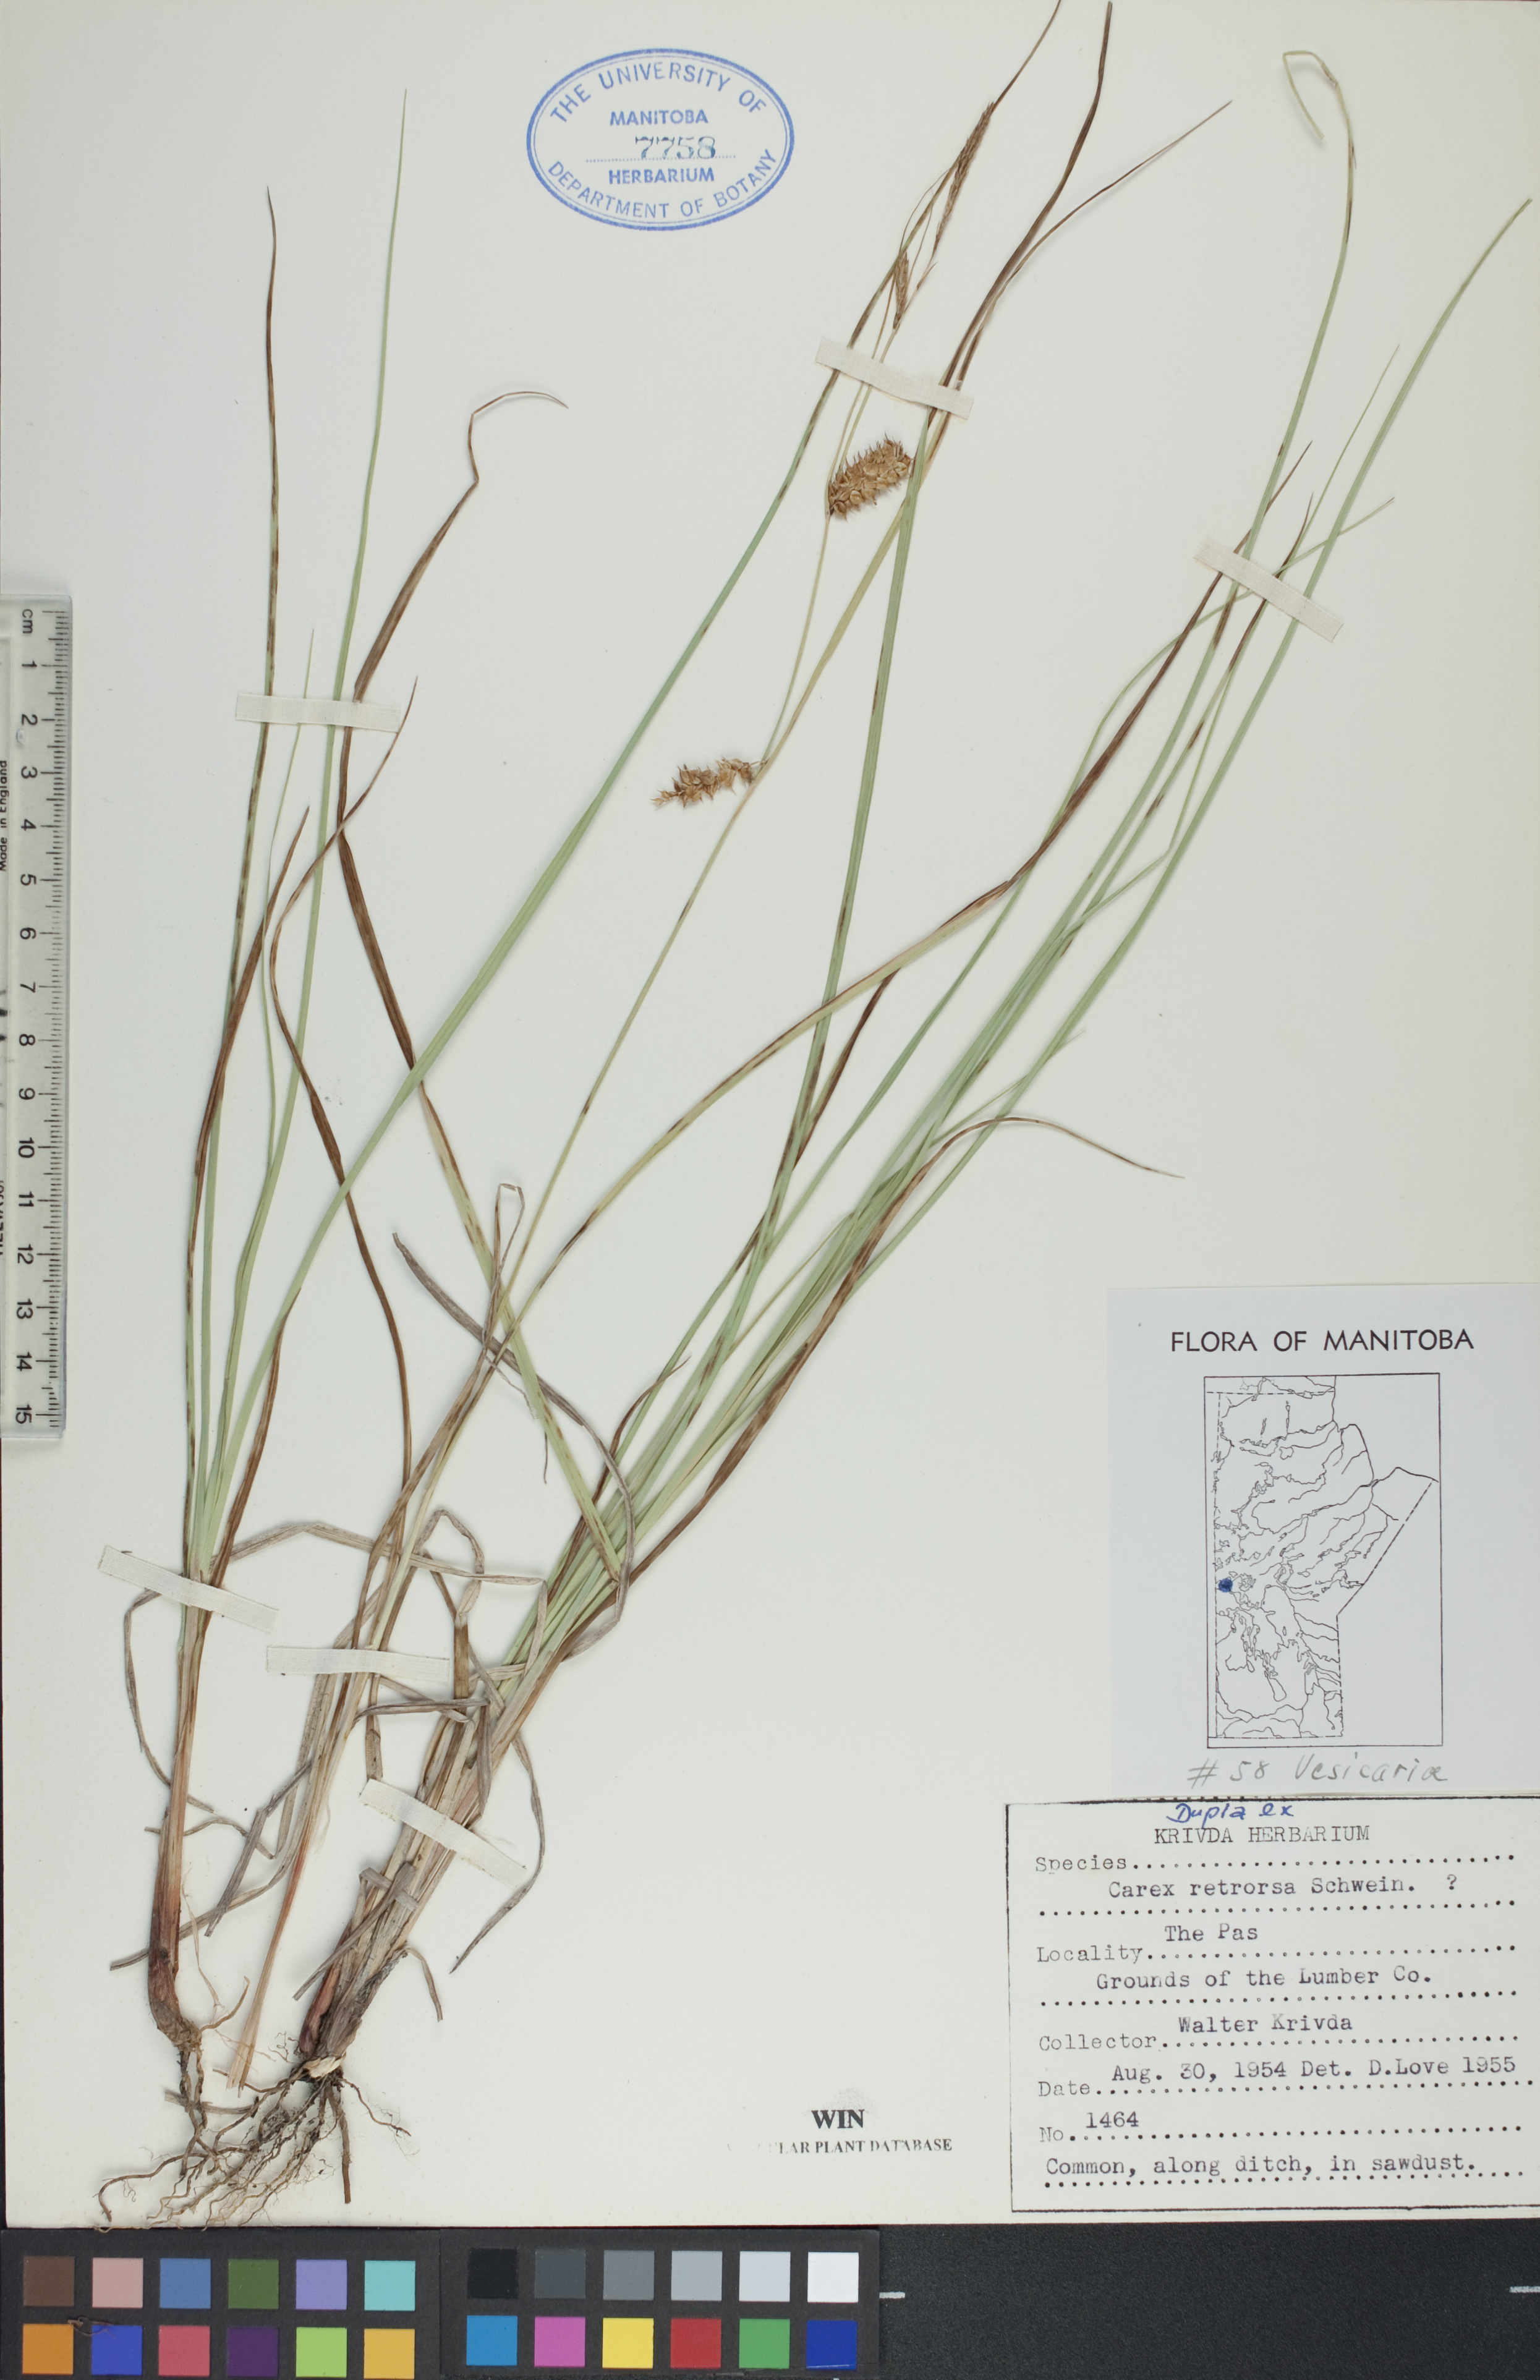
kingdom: Plantae
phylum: Tracheophyta
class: Liliopsida
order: Poales
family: Cyperaceae
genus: Carex
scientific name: Carex retrorsa
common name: Knot-sheath sedge
